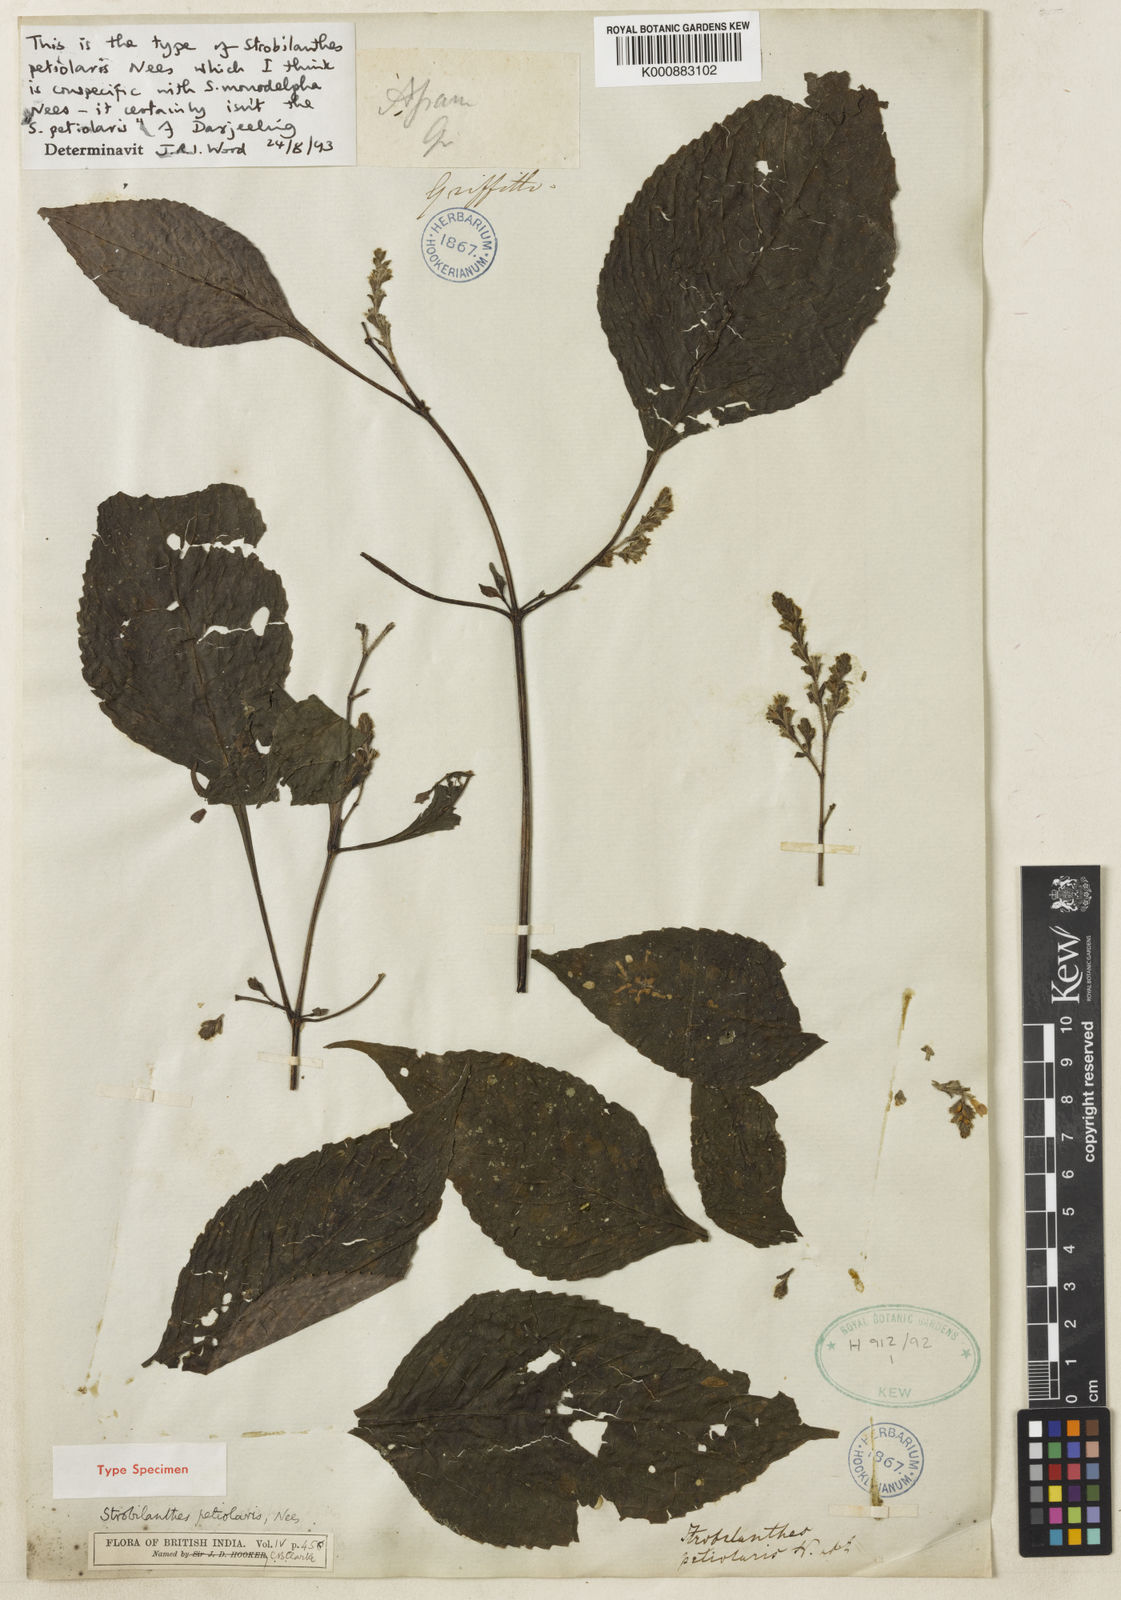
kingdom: Plantae
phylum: Tracheophyta
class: Magnoliopsida
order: Lamiales
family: Acanthaceae
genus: Strobilanthes
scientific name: Strobilanthes monadelpha
